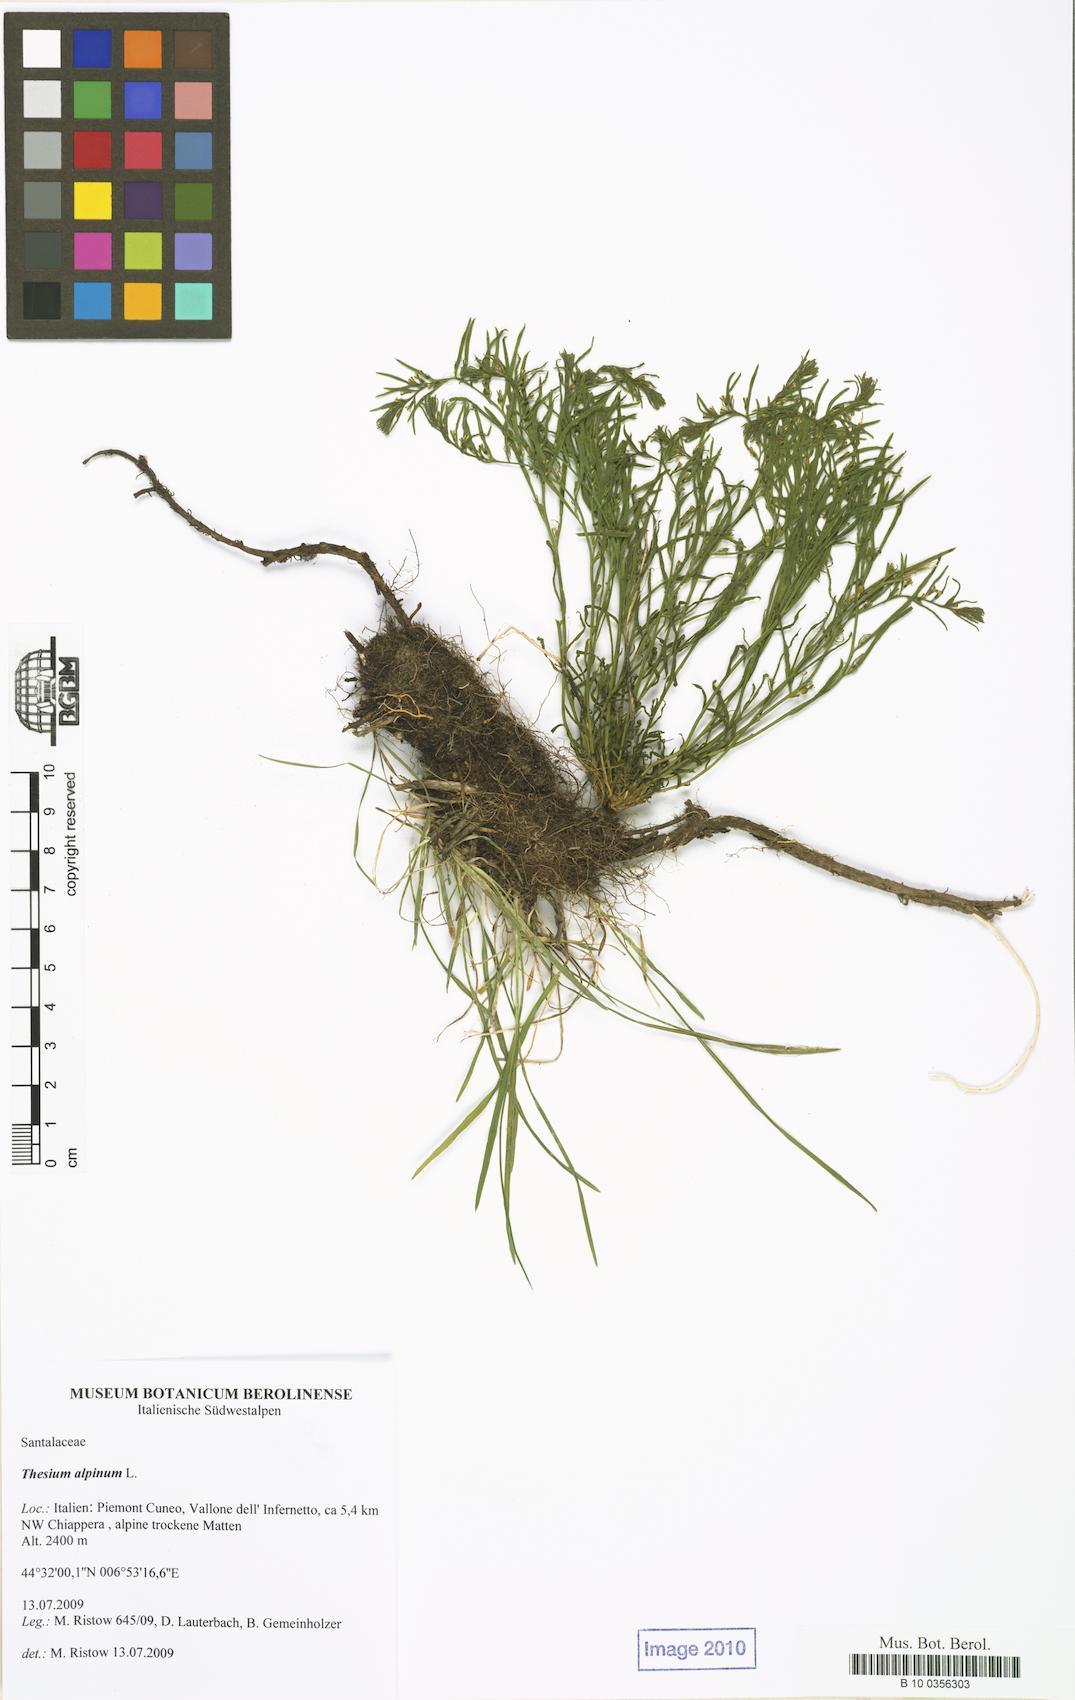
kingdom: Plantae
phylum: Tracheophyta
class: Magnoliopsida
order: Santalales
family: Thesiaceae
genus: Thesium
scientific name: Thesium alpinum
